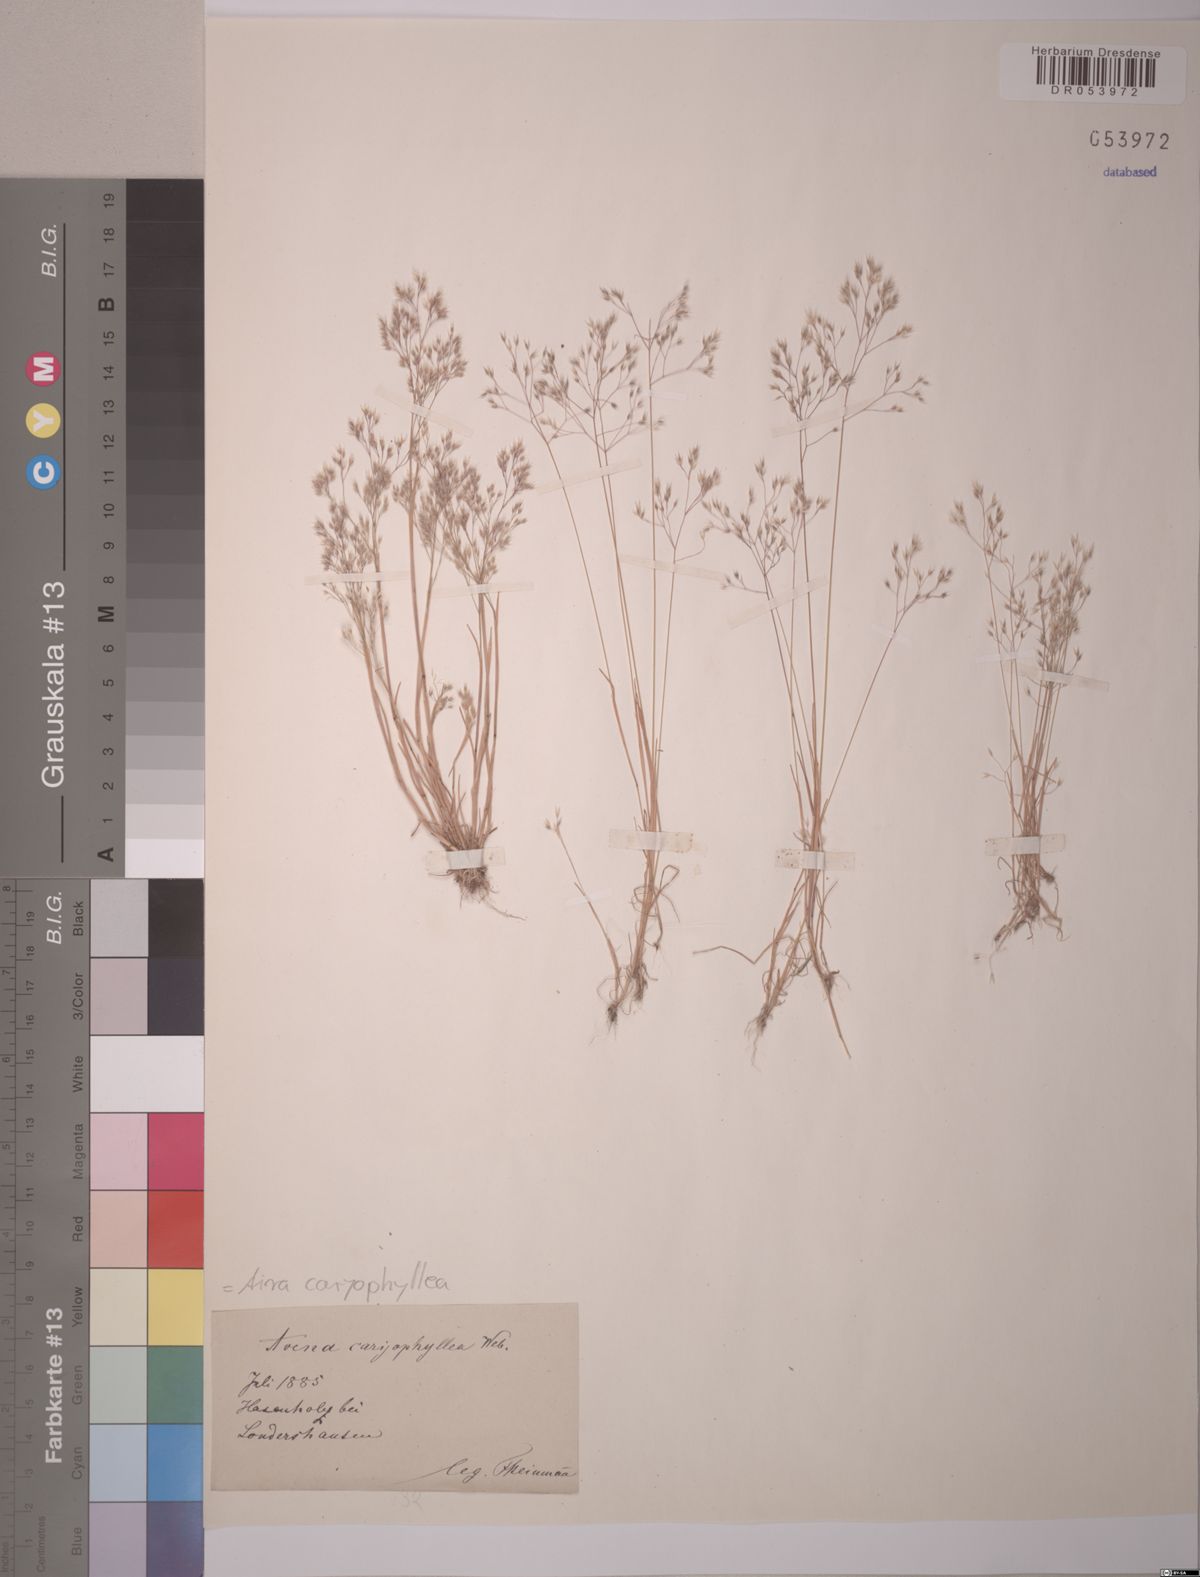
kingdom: Plantae
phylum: Tracheophyta
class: Liliopsida
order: Poales
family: Poaceae
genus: Aira
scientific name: Aira caryophyllea
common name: Silver hairgrass
